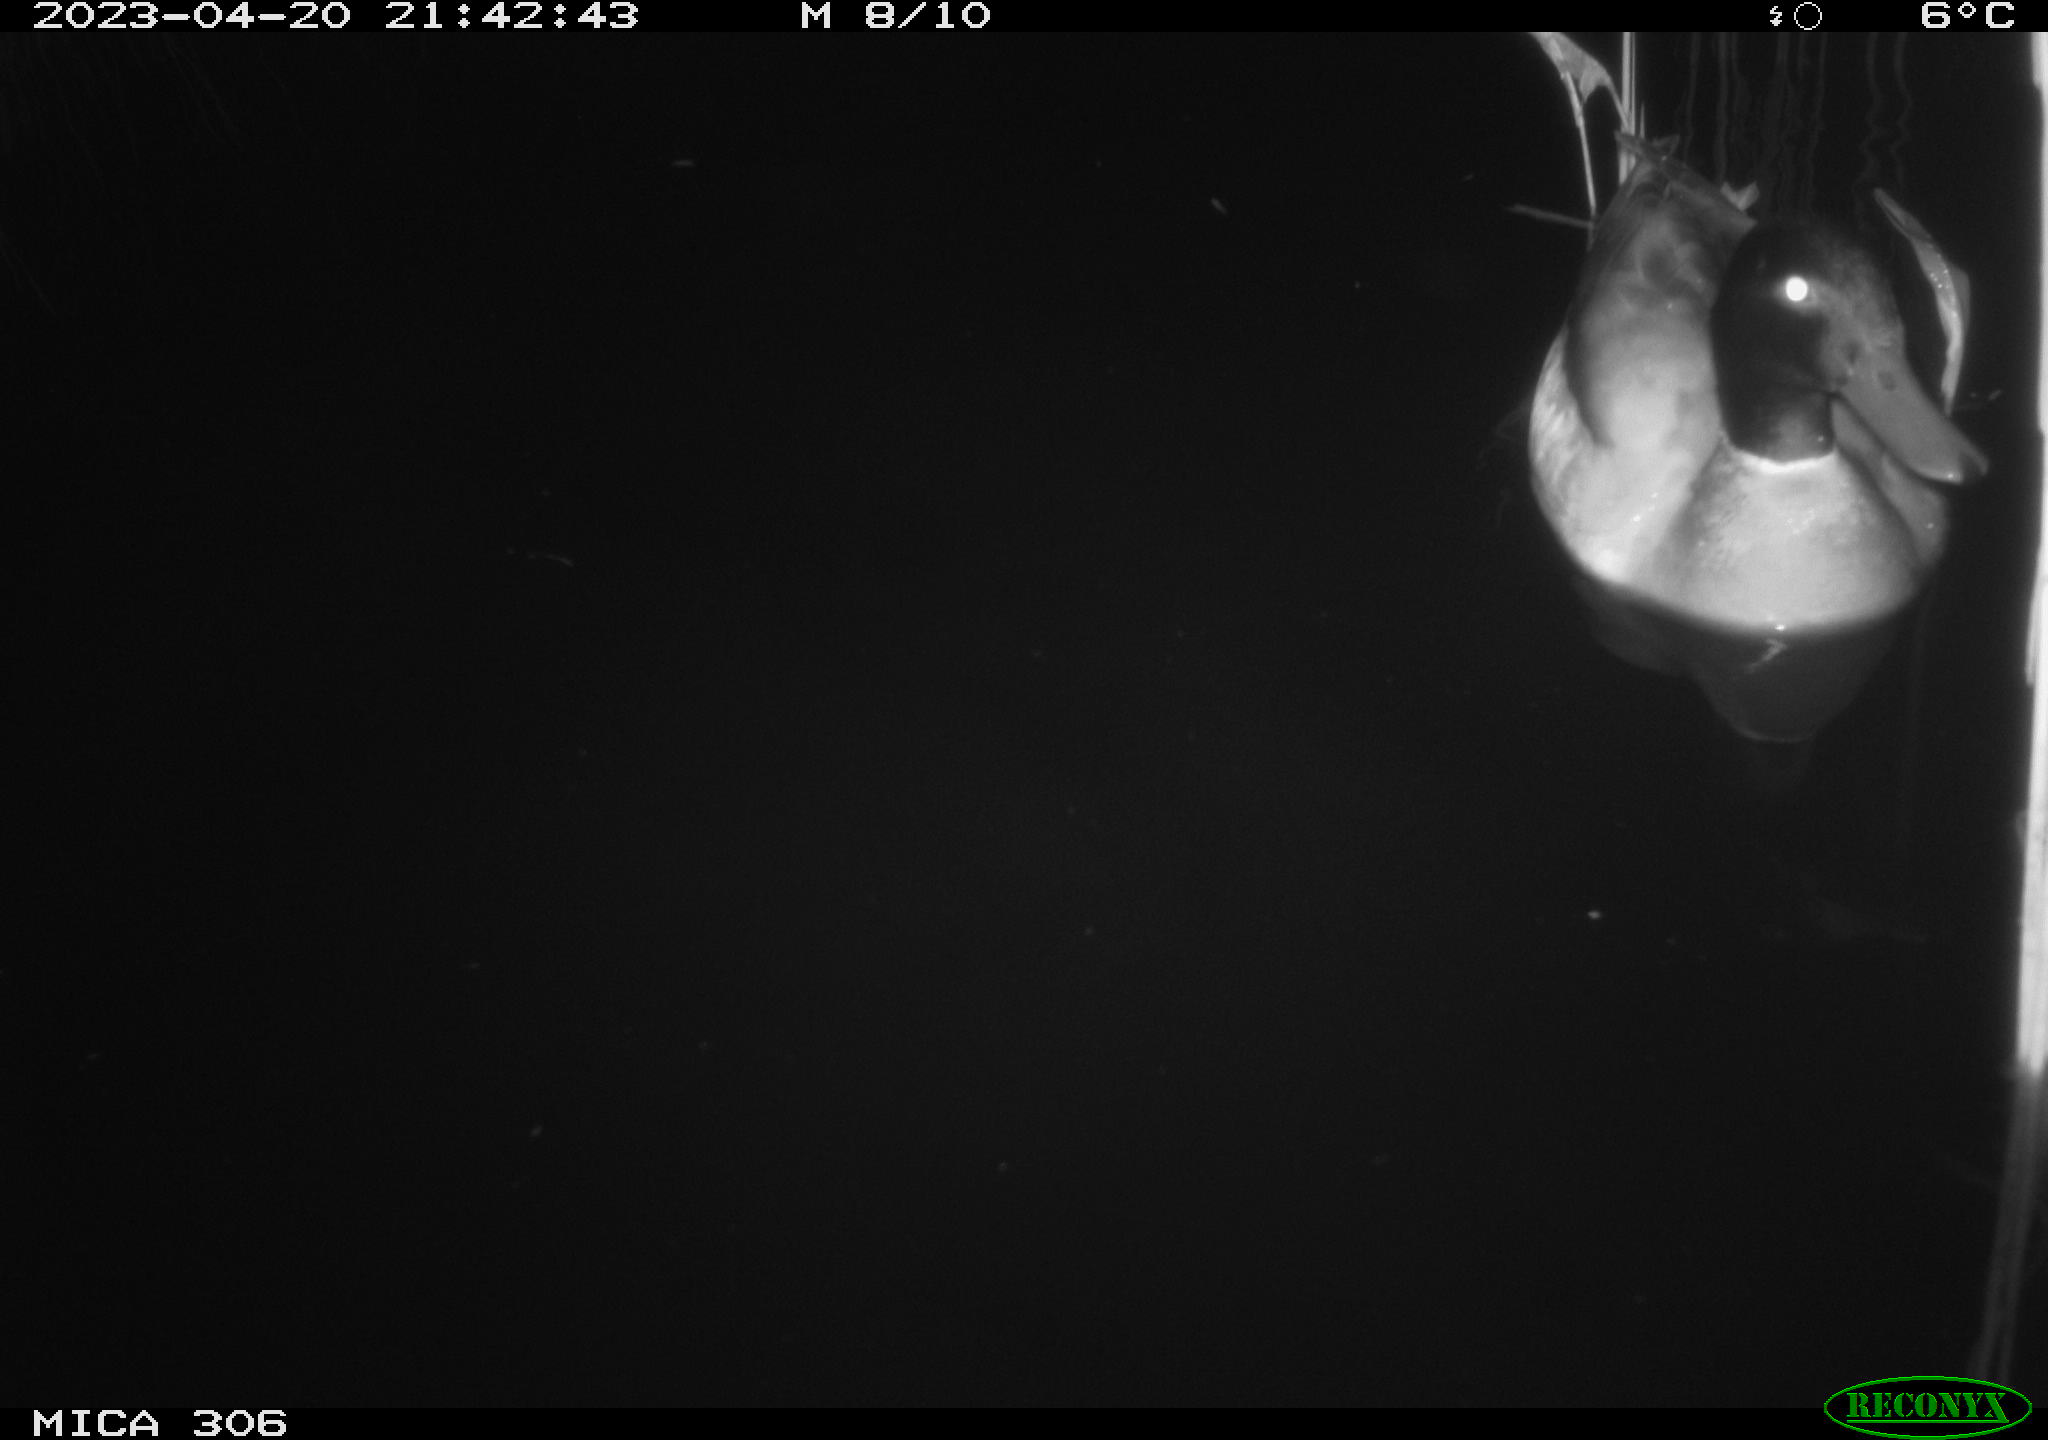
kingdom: Animalia
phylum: Chordata
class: Aves
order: Anseriformes
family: Anatidae
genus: Anas
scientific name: Anas
